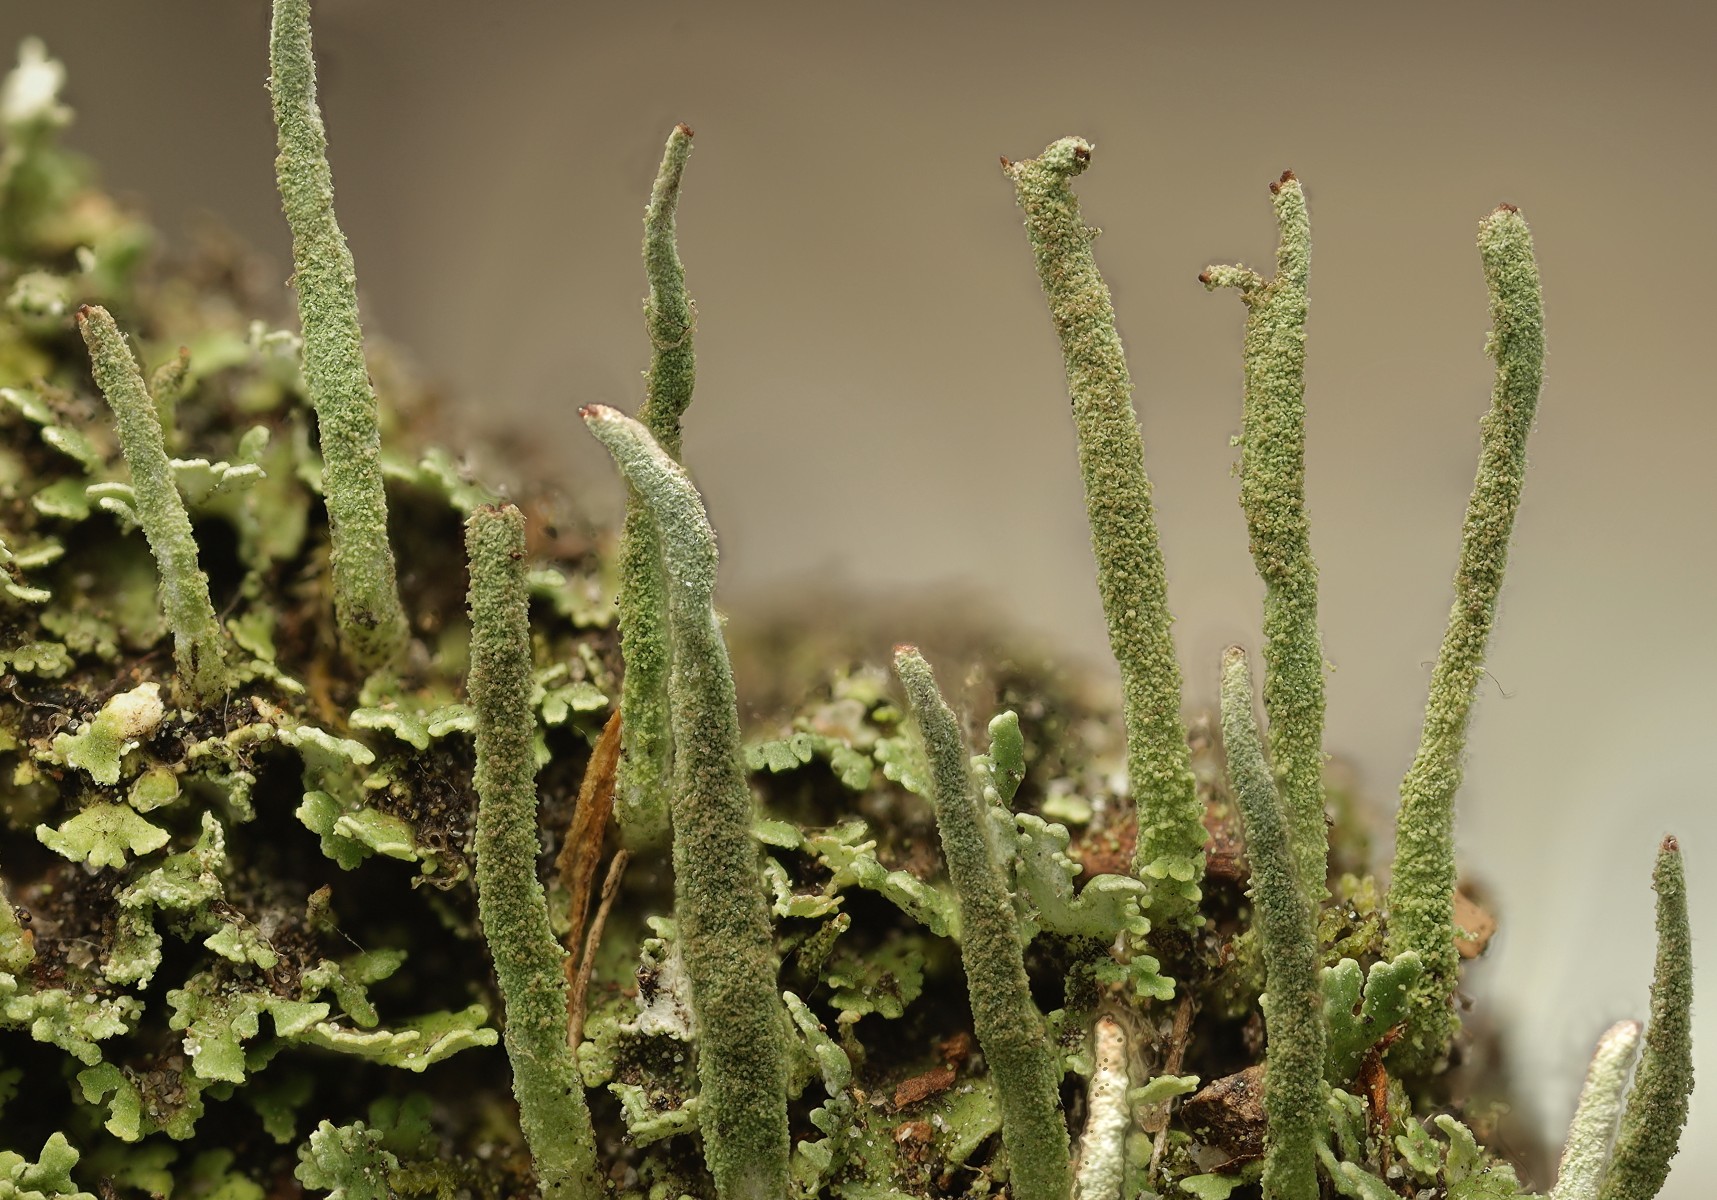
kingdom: Fungi
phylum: Ascomycota
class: Lecanoromycetes
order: Lecanorales
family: Cladoniaceae
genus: Cladonia
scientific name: Cladonia glauca
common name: grågrøn bægerlav
